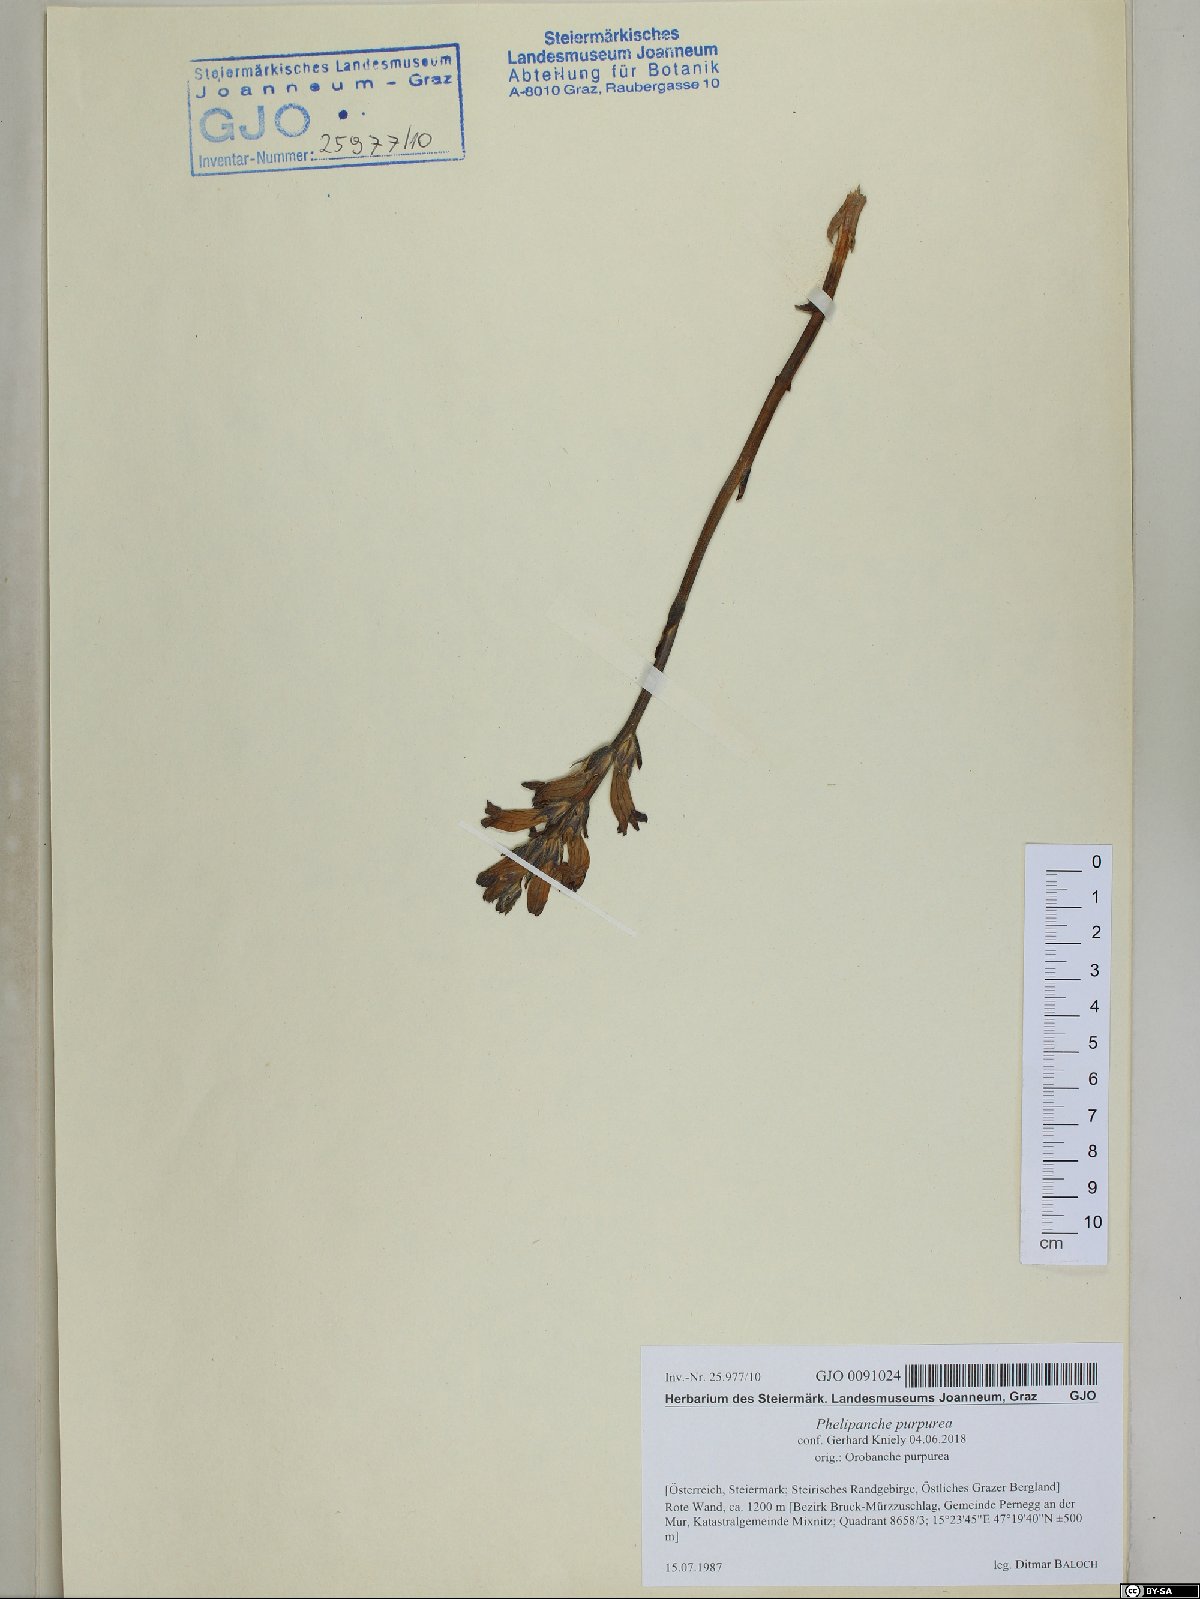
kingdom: Plantae
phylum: Tracheophyta
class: Magnoliopsida
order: Lamiales
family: Orobanchaceae
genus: Phelipanche
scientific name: Phelipanche purpurea
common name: Purple broomrape
